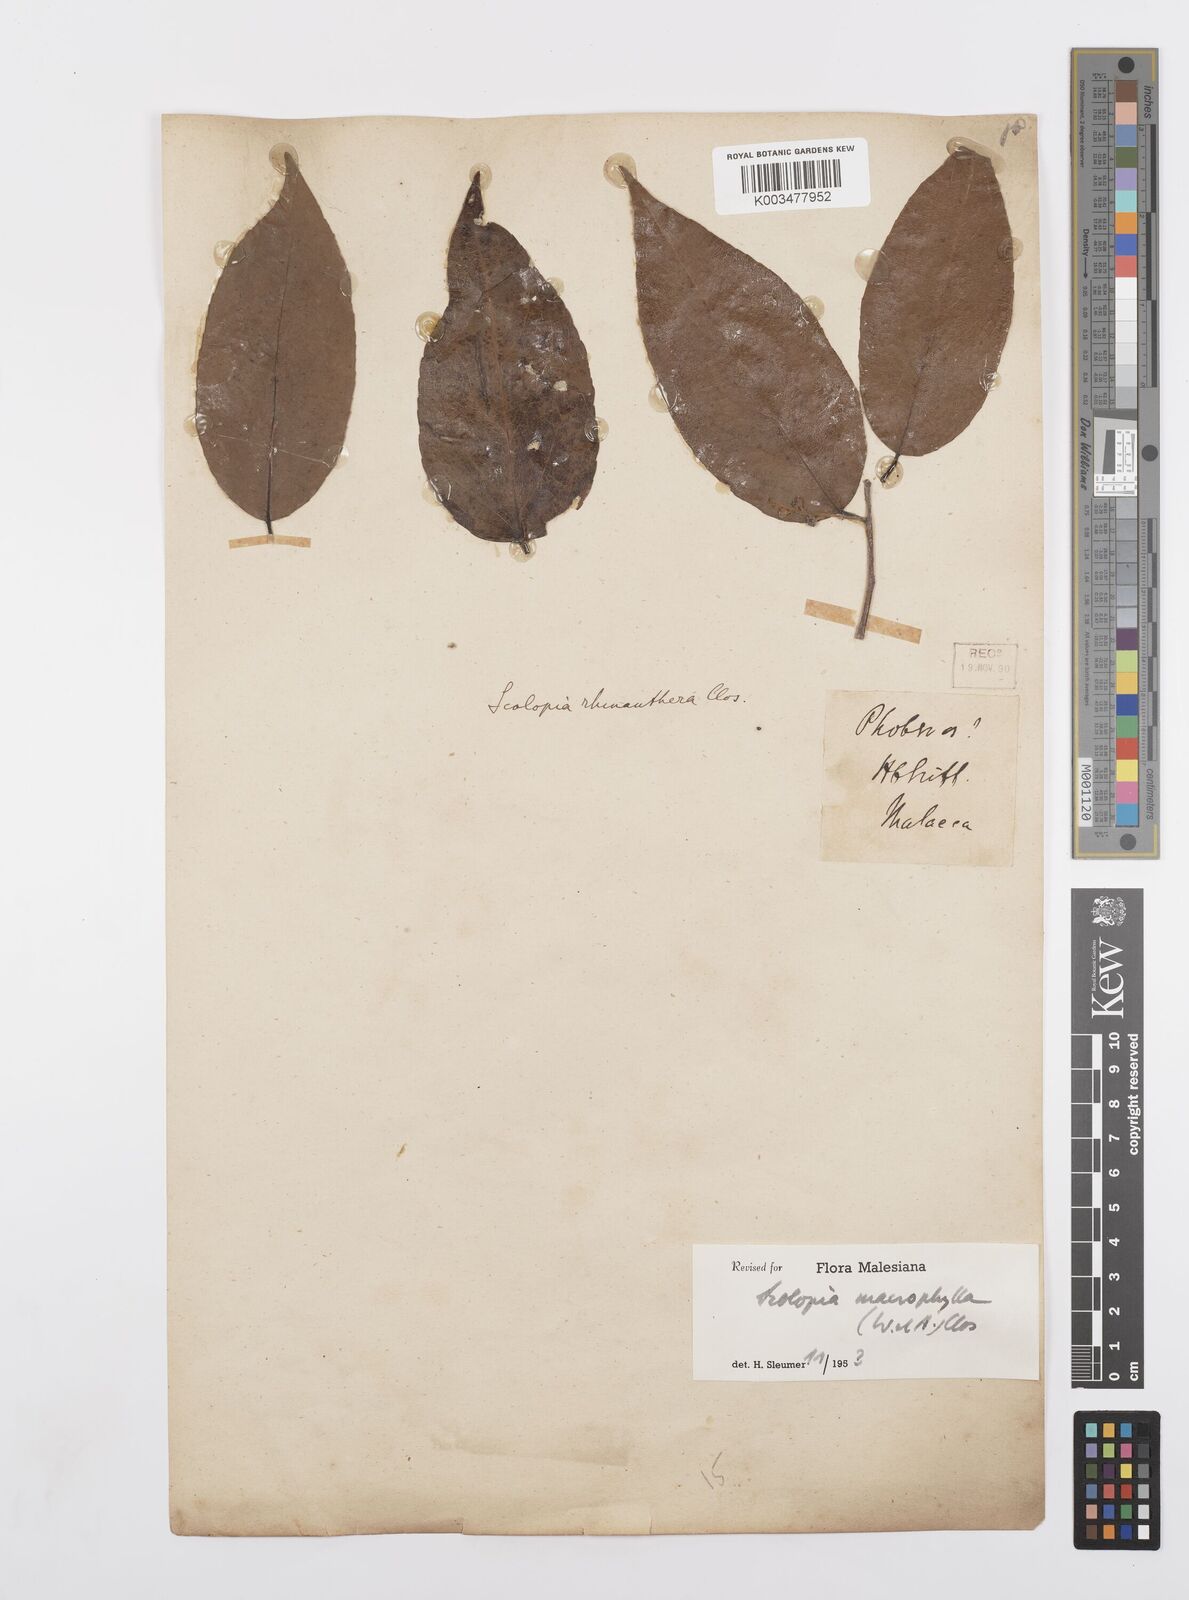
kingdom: Plantae
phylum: Tracheophyta
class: Magnoliopsida
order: Malpighiales
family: Salicaceae
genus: Scolopia
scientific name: Scolopia macrophylla
